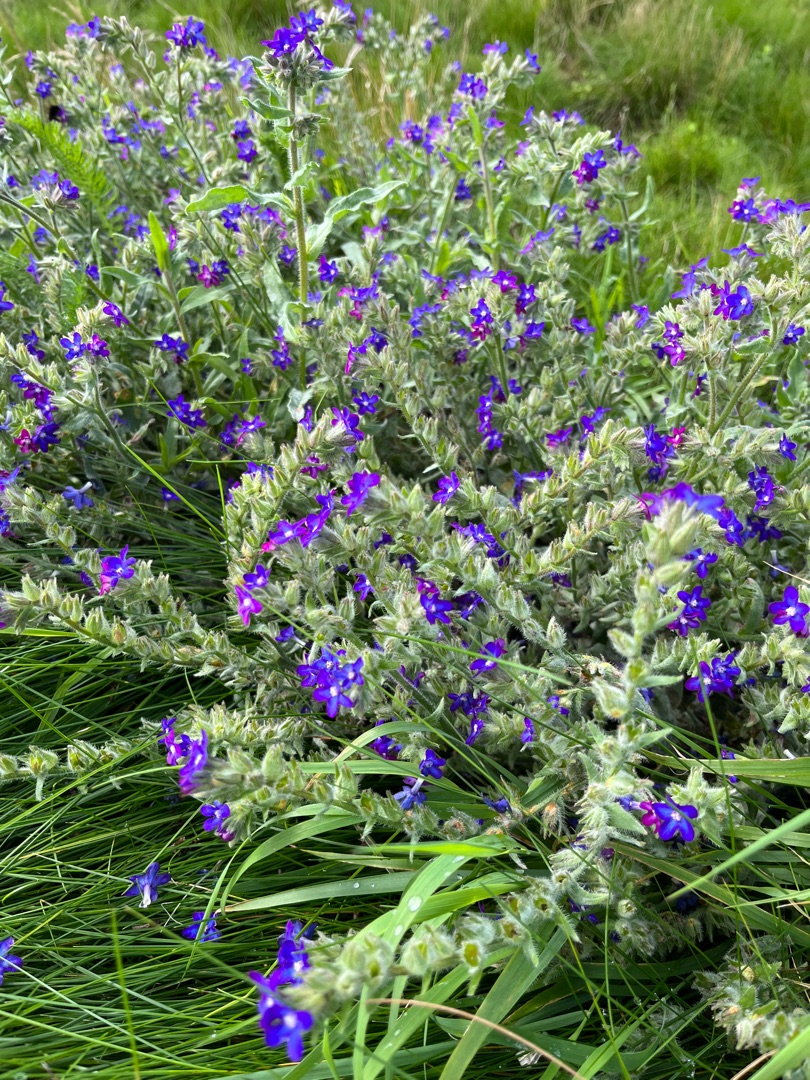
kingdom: Plantae
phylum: Tracheophyta
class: Magnoliopsida
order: Boraginales
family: Boraginaceae
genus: Anchusa
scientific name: Anchusa officinalis
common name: Læge-oksetunge
